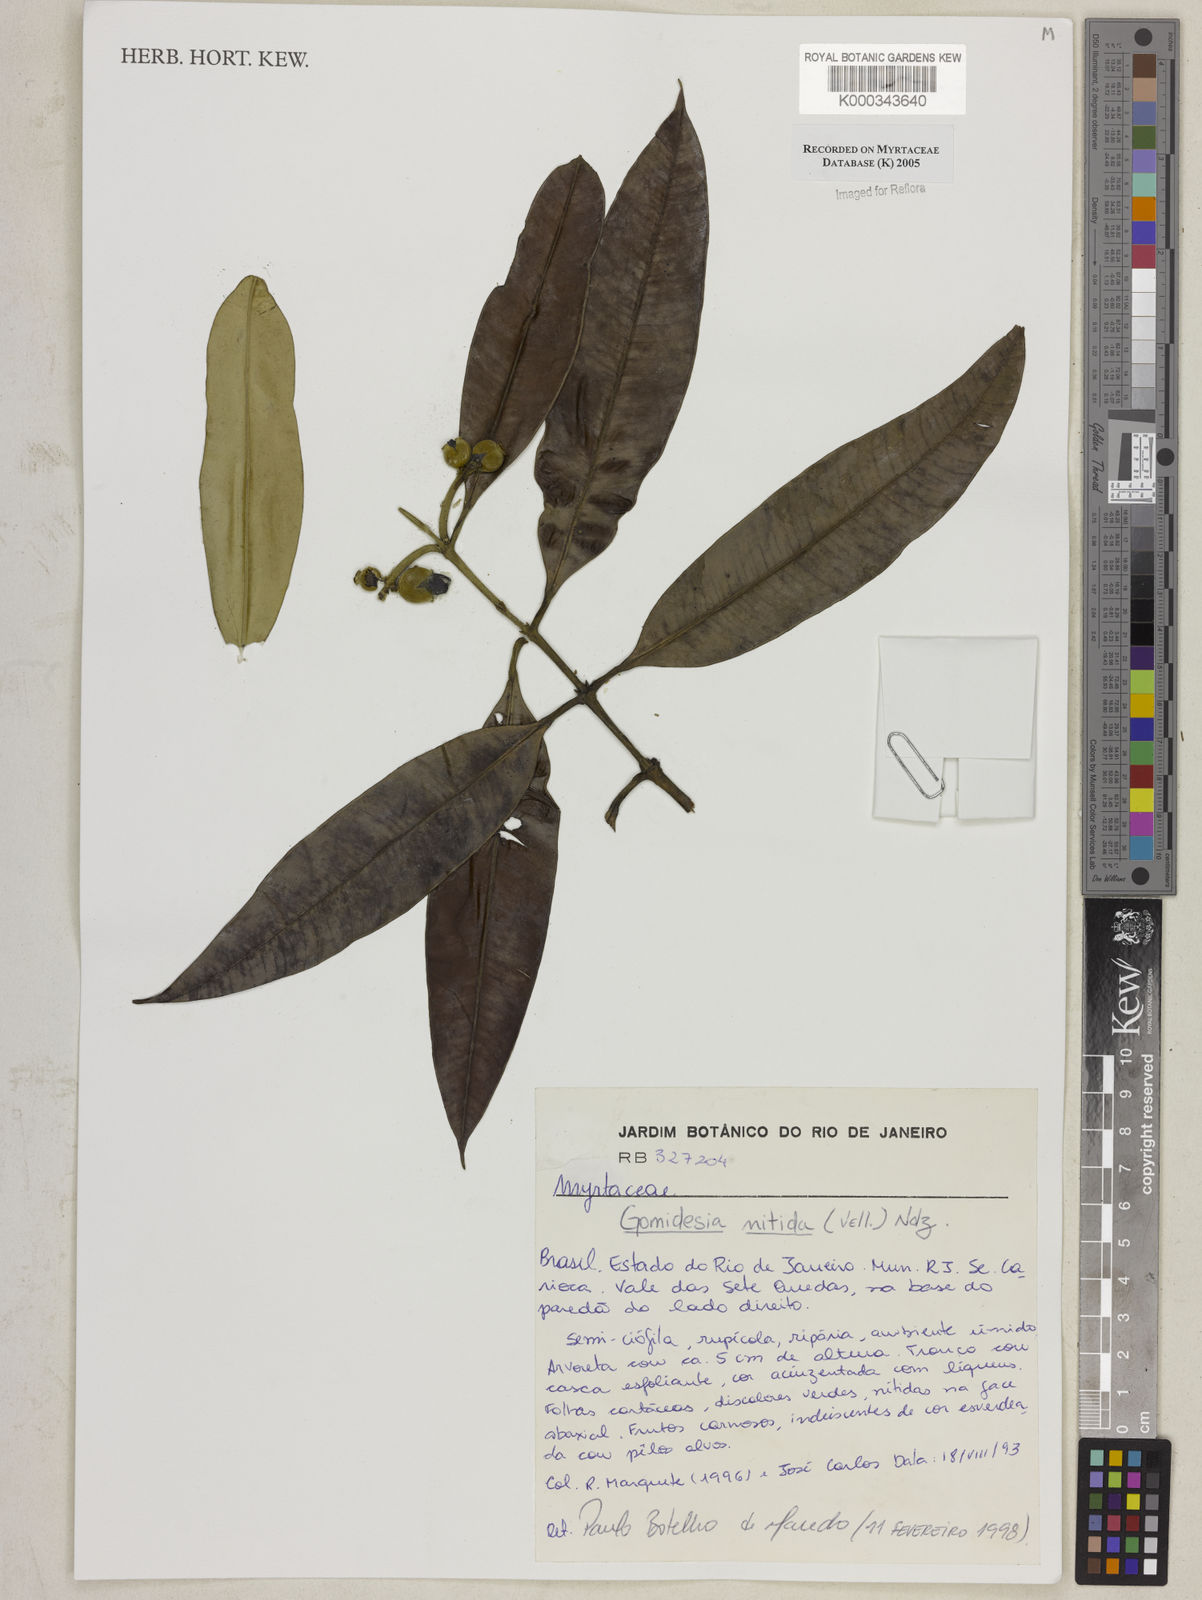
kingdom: Plantae
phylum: Tracheophyta
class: Magnoliopsida
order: Myrtales
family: Myrtaceae
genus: Myrcia
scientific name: Myrcia subsericea
